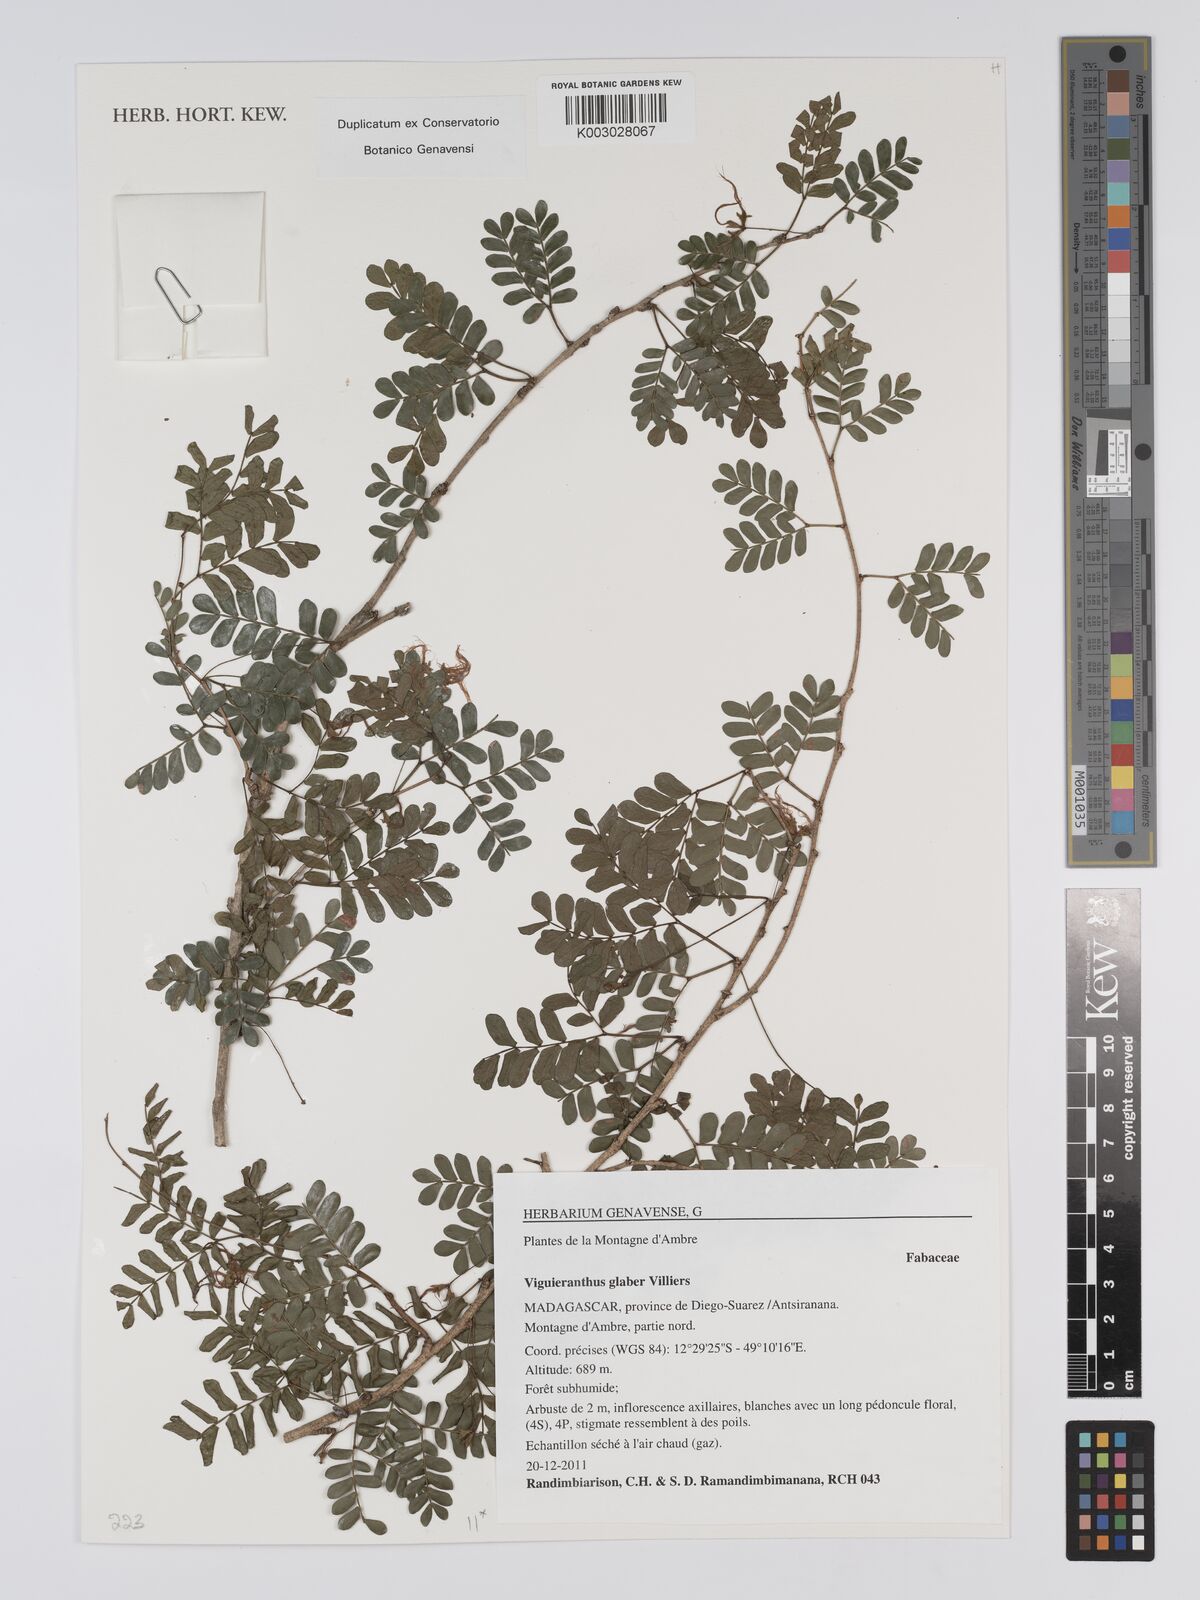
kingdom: Plantae
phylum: Tracheophyta
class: Magnoliopsida
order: Fabales
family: Fabaceae
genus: Viguieranthus
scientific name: Viguieranthus glaber
